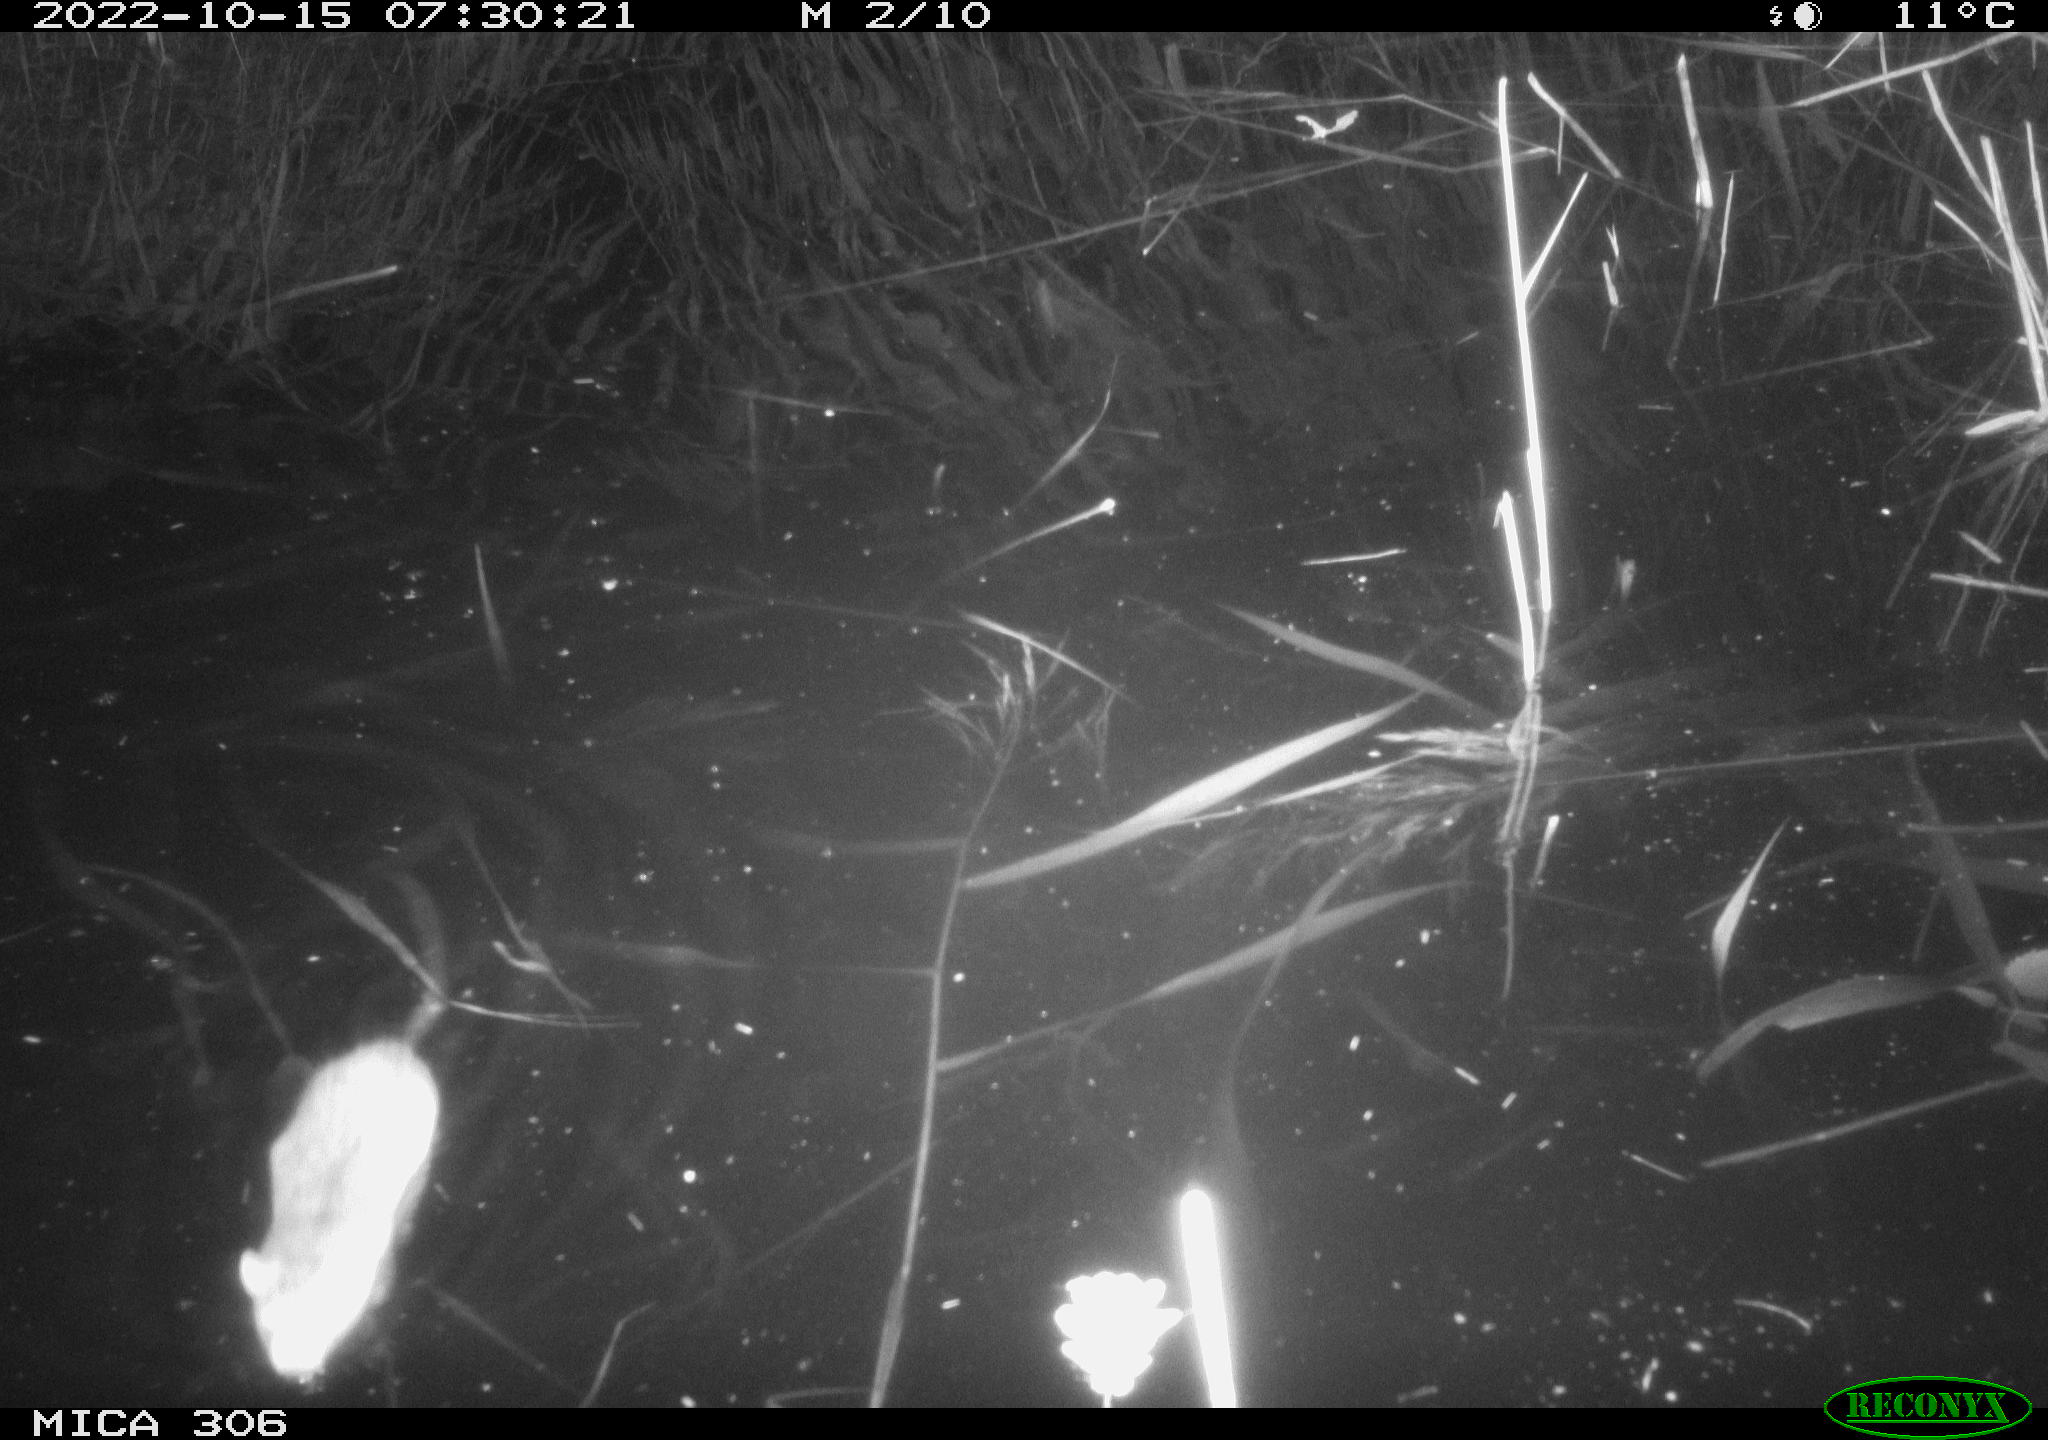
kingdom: Animalia
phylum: Chordata
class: Mammalia
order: Rodentia
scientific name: Rodentia
